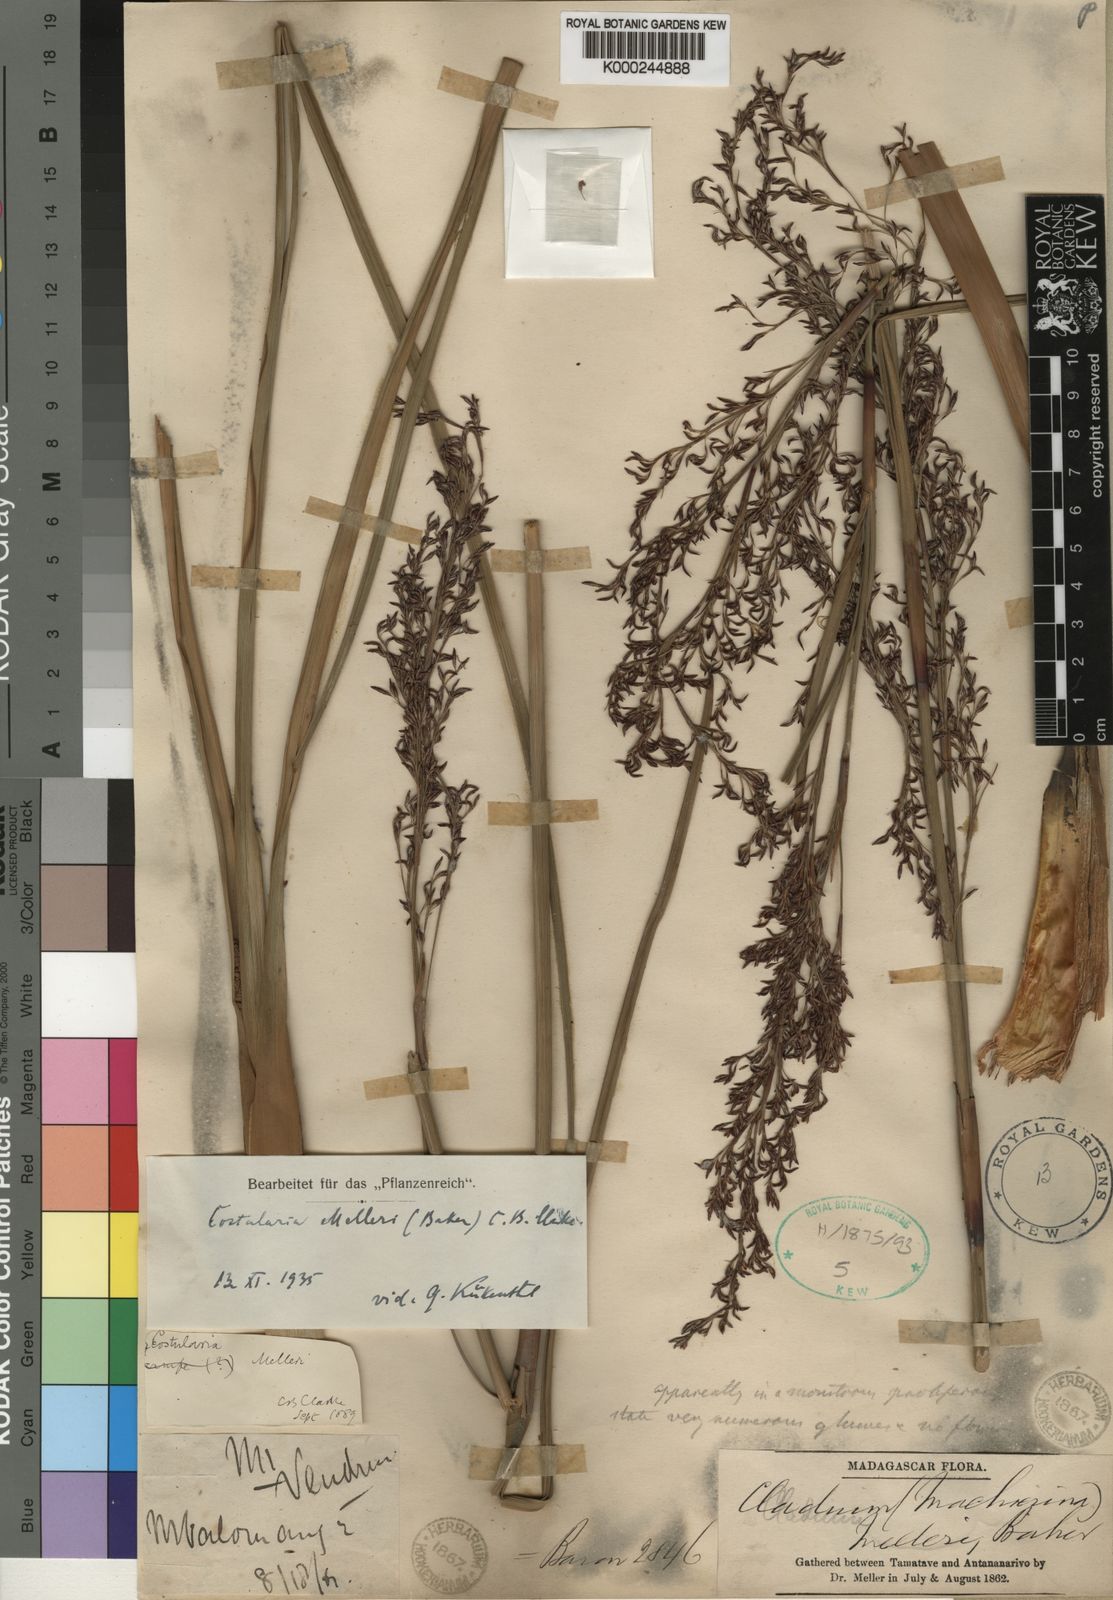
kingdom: Plantae
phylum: Tracheophyta
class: Liliopsida
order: Poales
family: Cyperaceae
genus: Costularia
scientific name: Costularia
